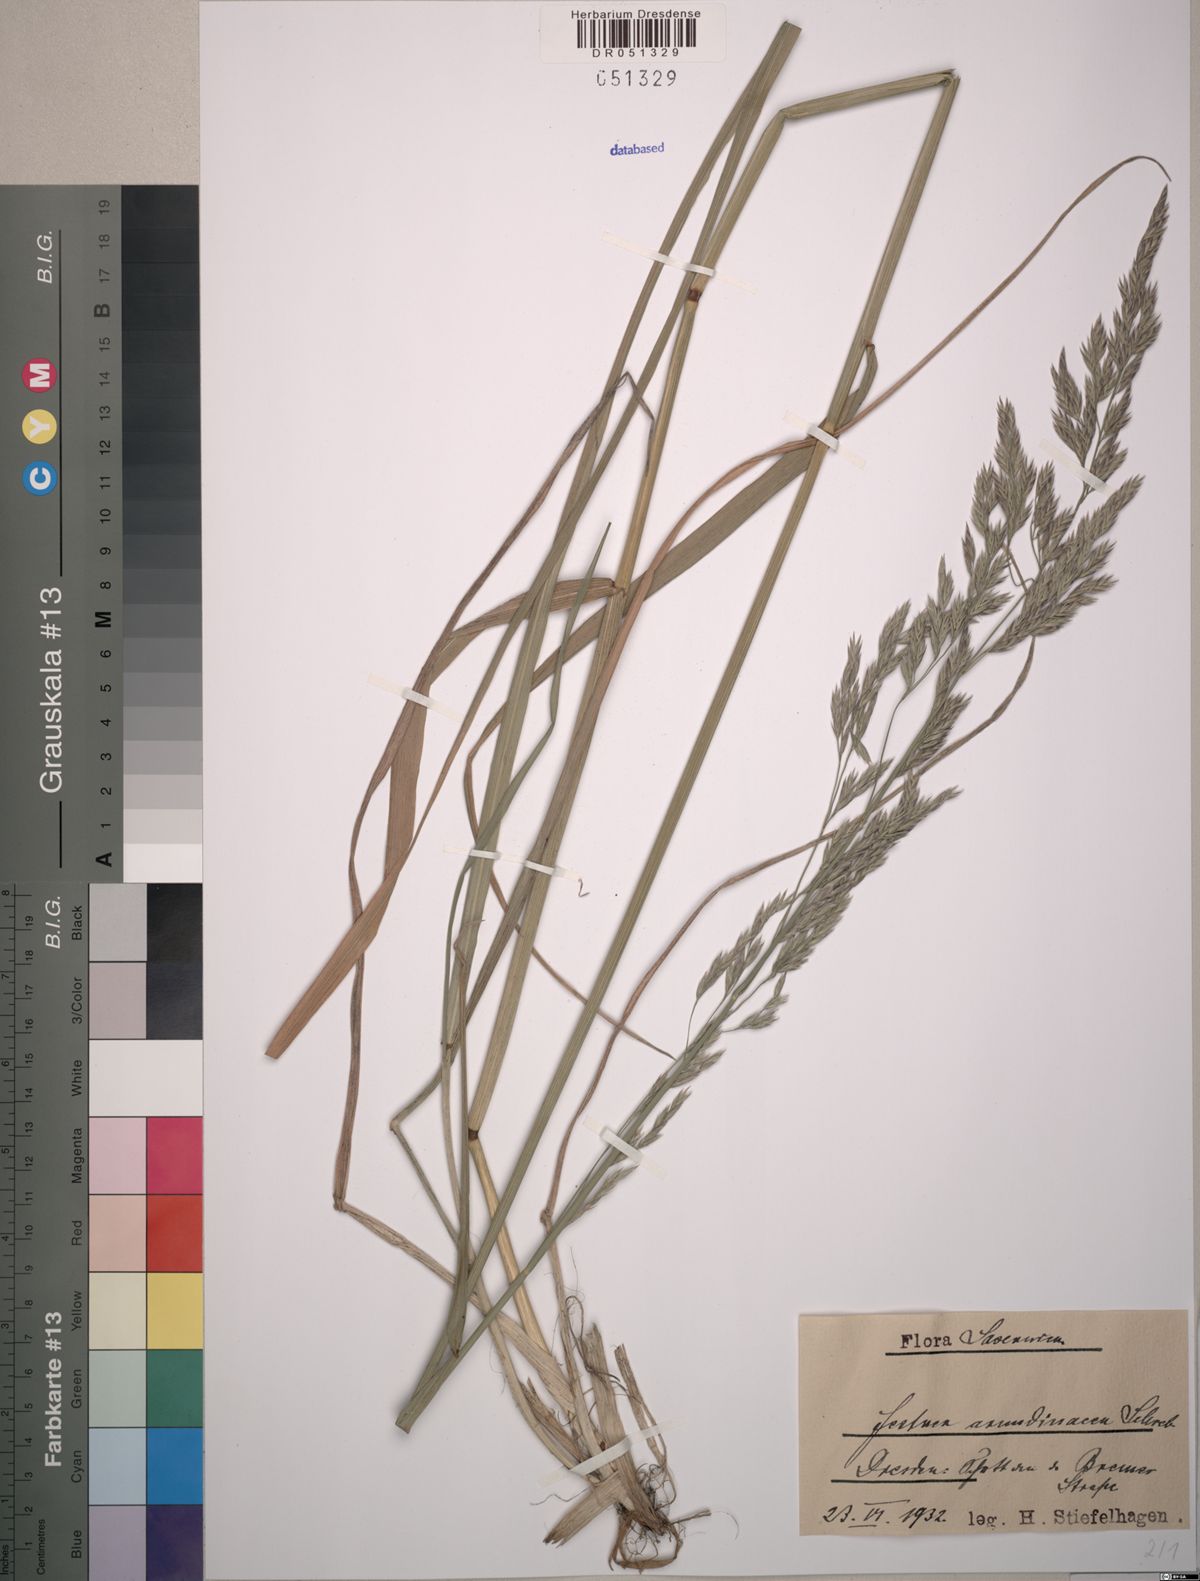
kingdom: Plantae
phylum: Tracheophyta
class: Liliopsida
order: Poales
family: Poaceae
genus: Lolium
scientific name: Lolium arundinaceum
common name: Reed fescue
